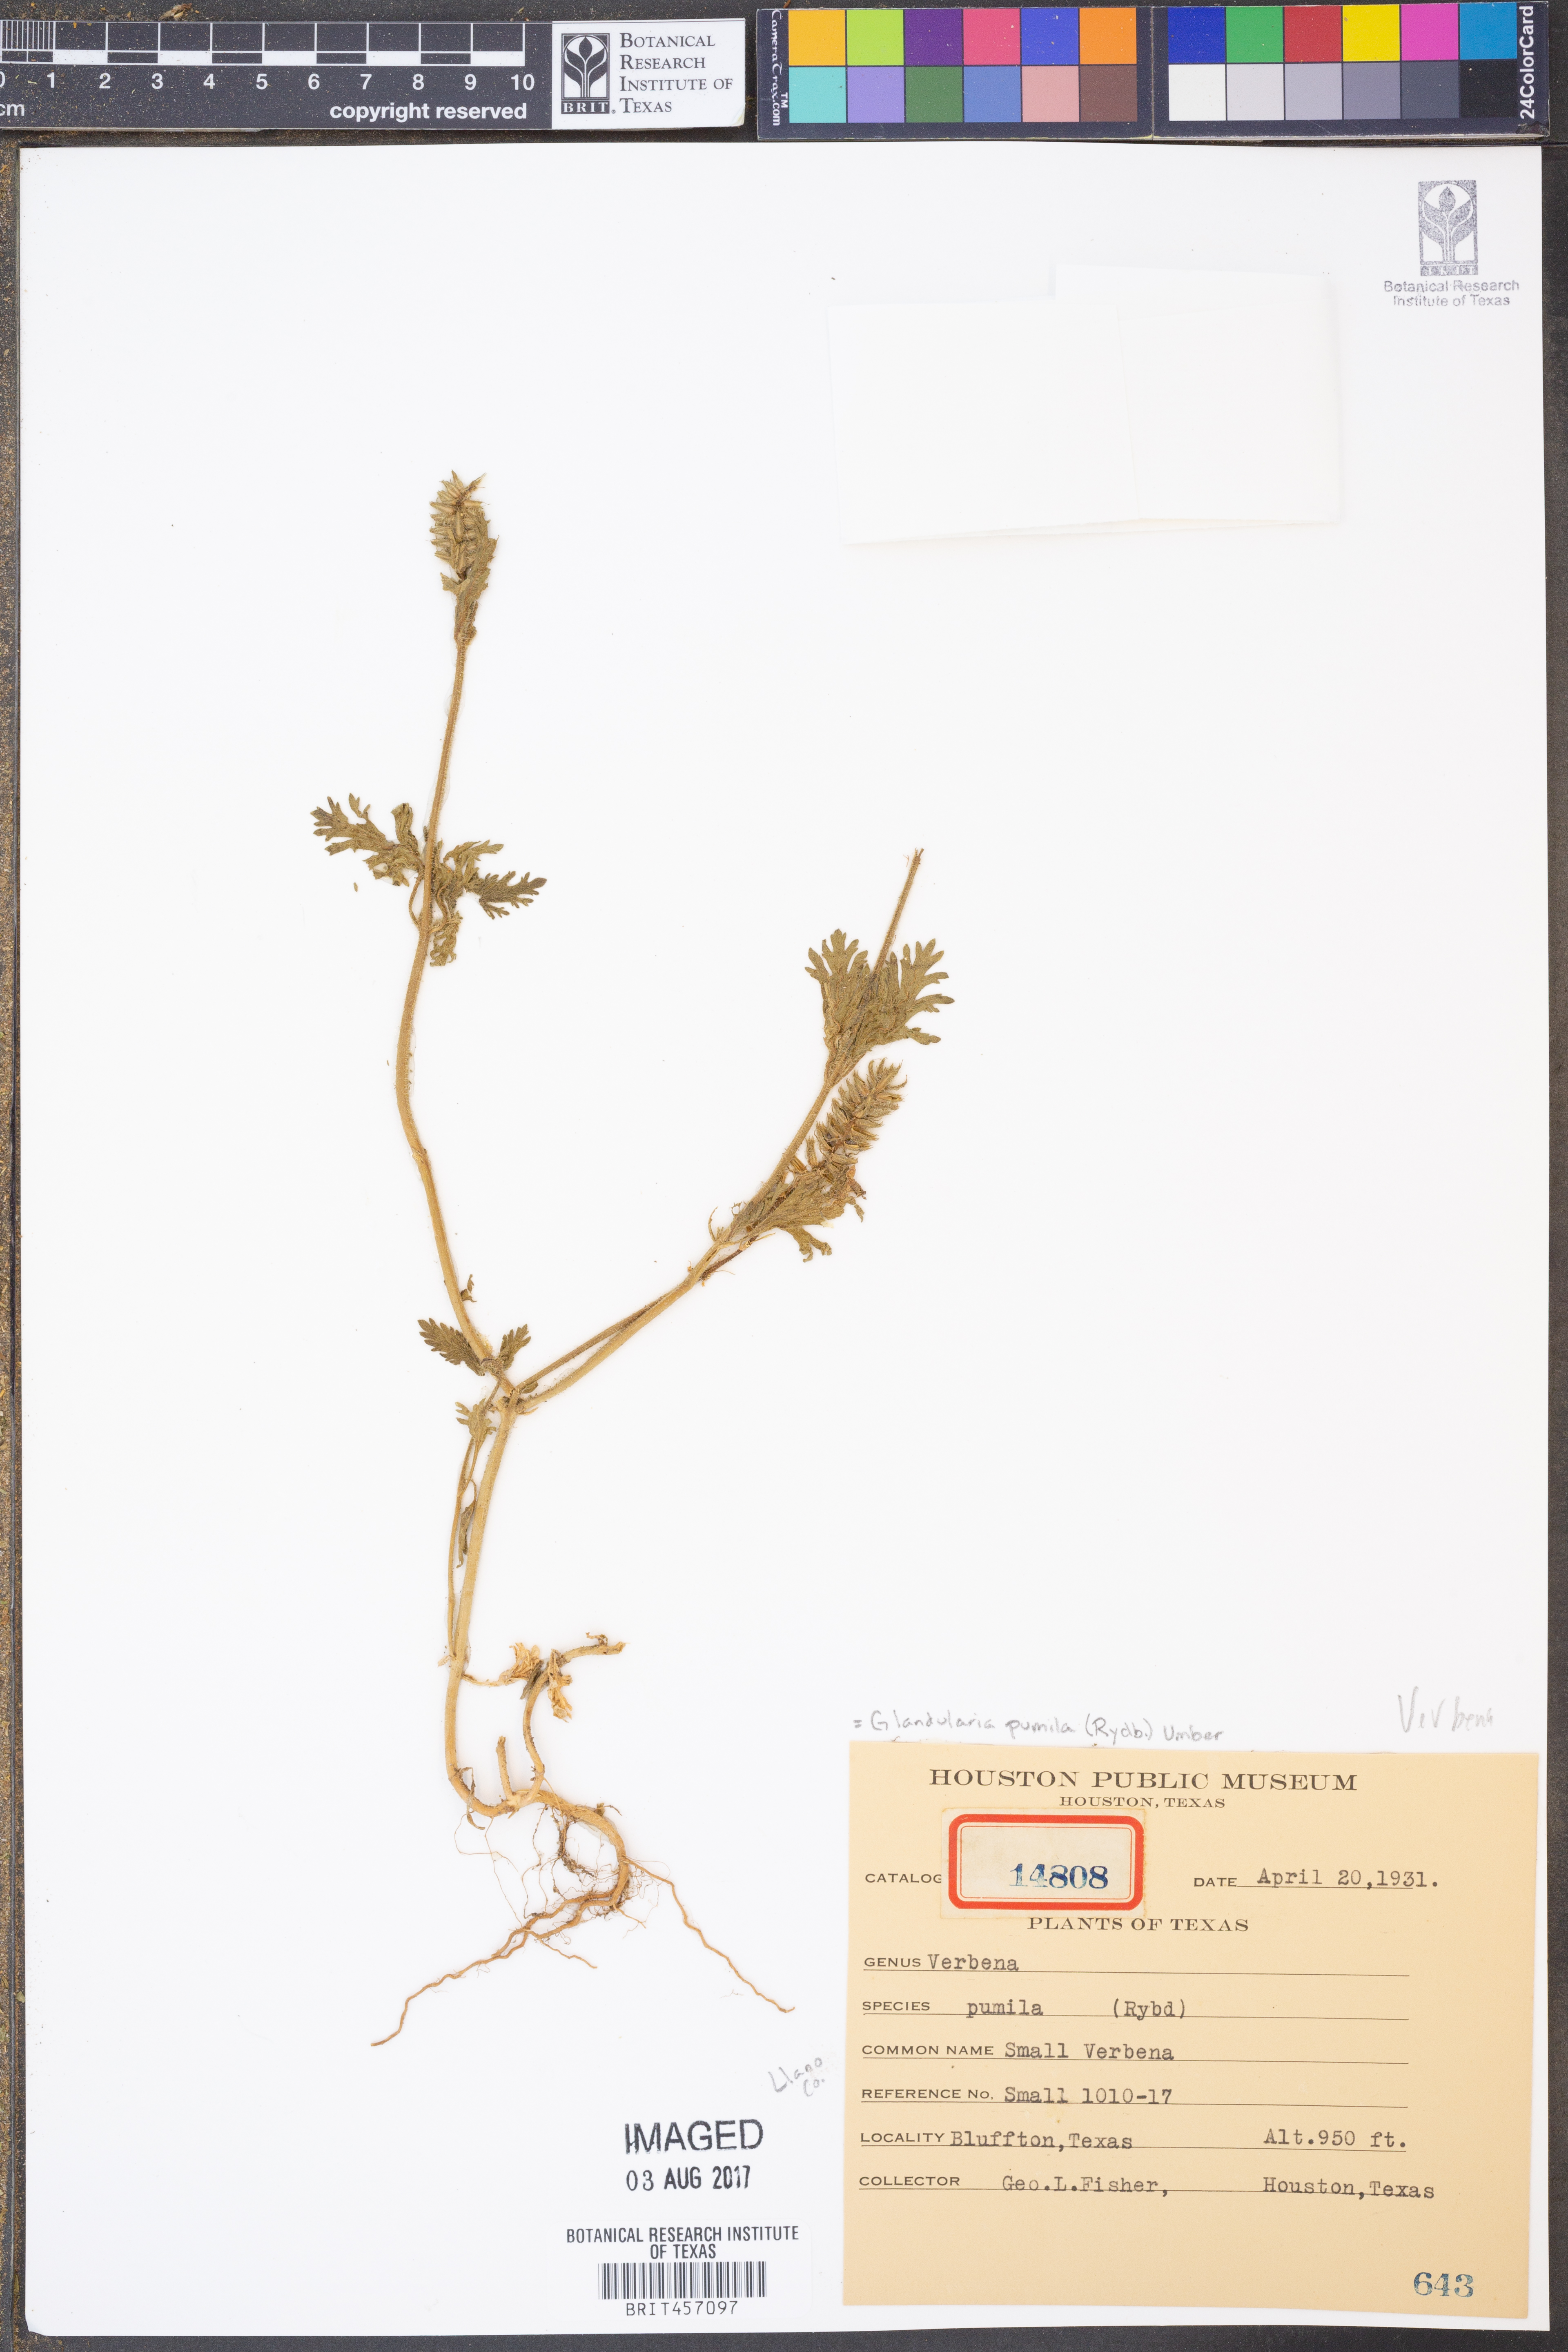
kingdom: Plantae
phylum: Tracheophyta
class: Magnoliopsida
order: Lamiales
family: Verbenaceae
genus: Verbena
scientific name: Verbena pumila
